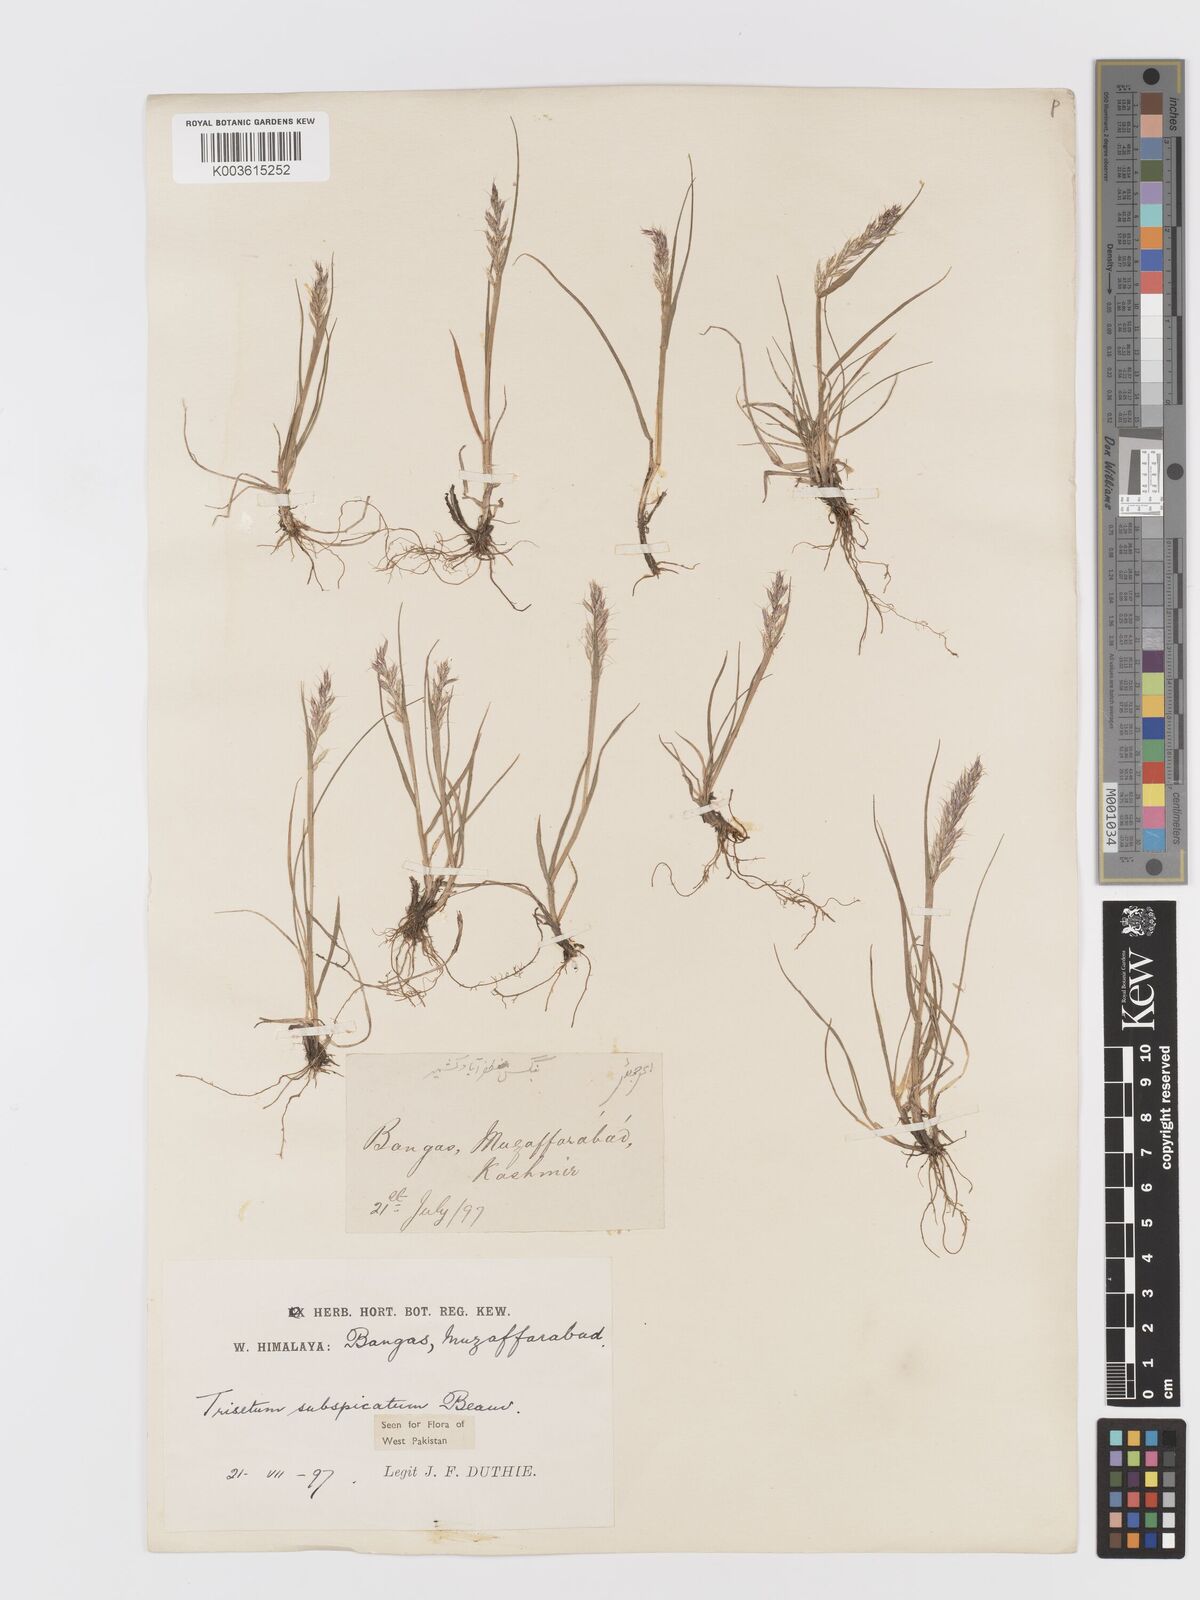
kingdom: Plantae
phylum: Tracheophyta
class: Liliopsida
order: Poales
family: Poaceae
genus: Koeleria
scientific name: Koeleria spicata
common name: Mountain trisetum
